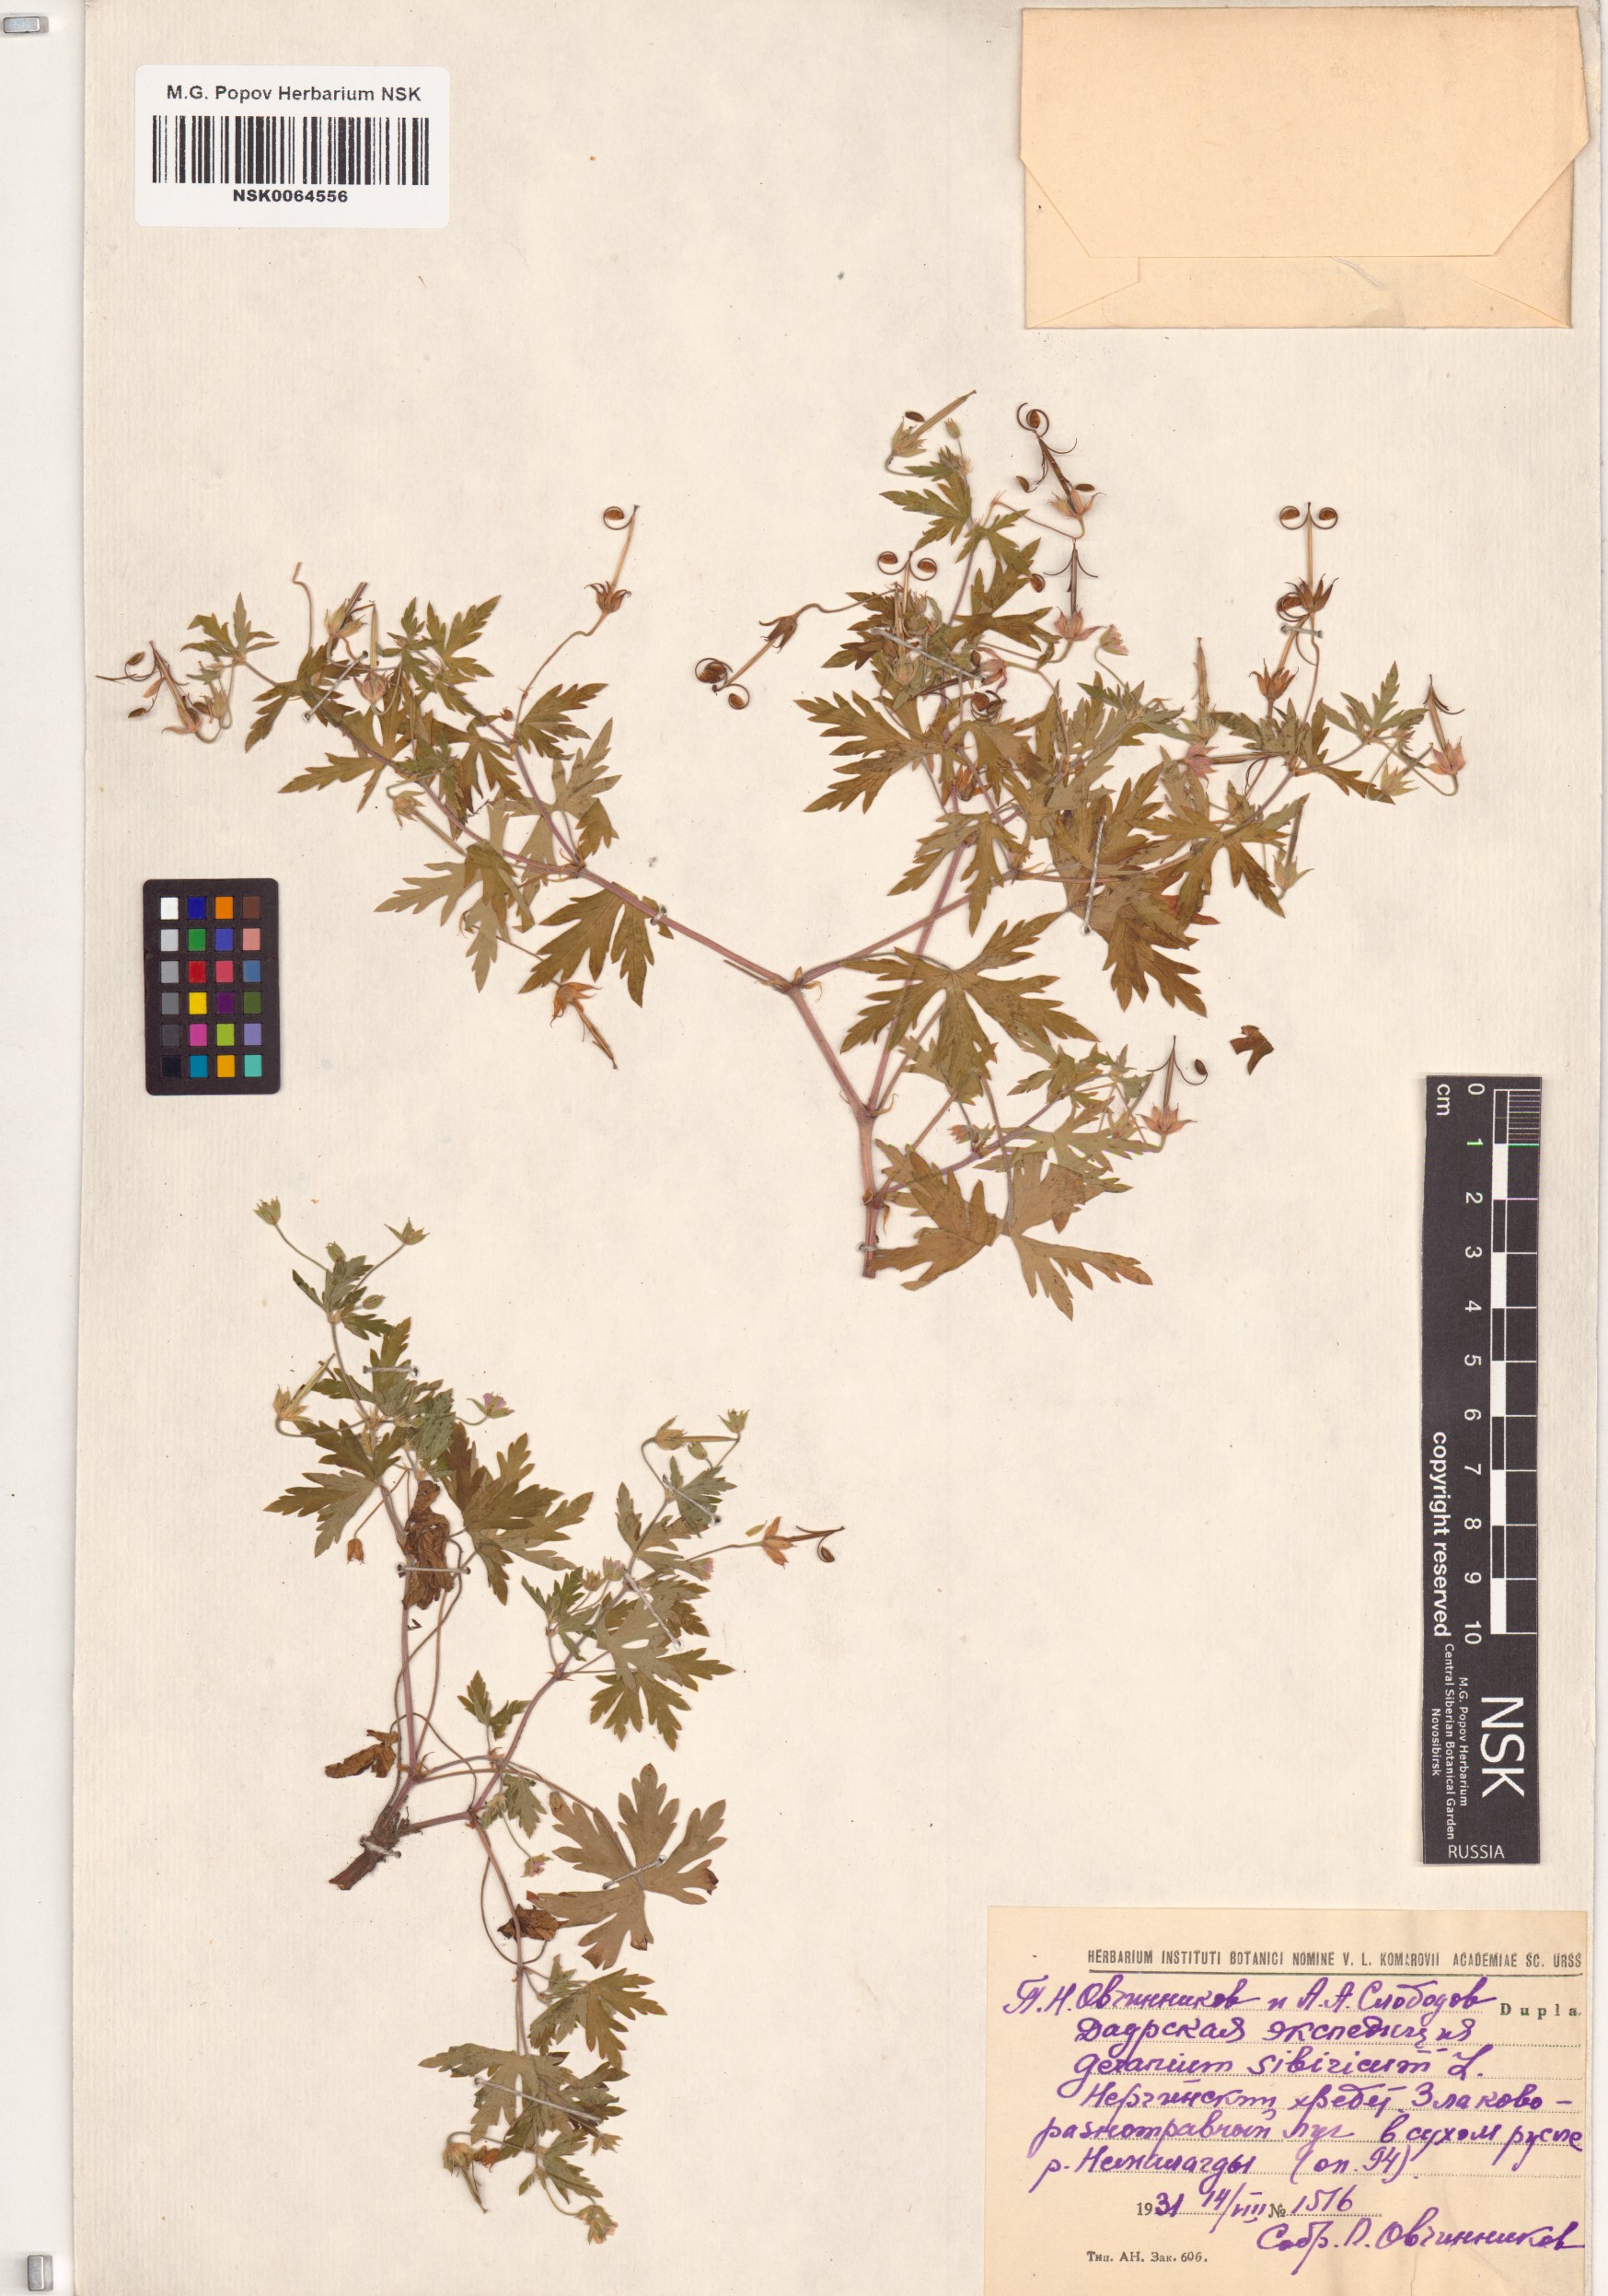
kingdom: Plantae
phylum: Tracheophyta
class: Magnoliopsida
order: Geraniales
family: Geraniaceae
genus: Geranium
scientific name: Geranium sibiricum
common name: Siberian crane's-bill
